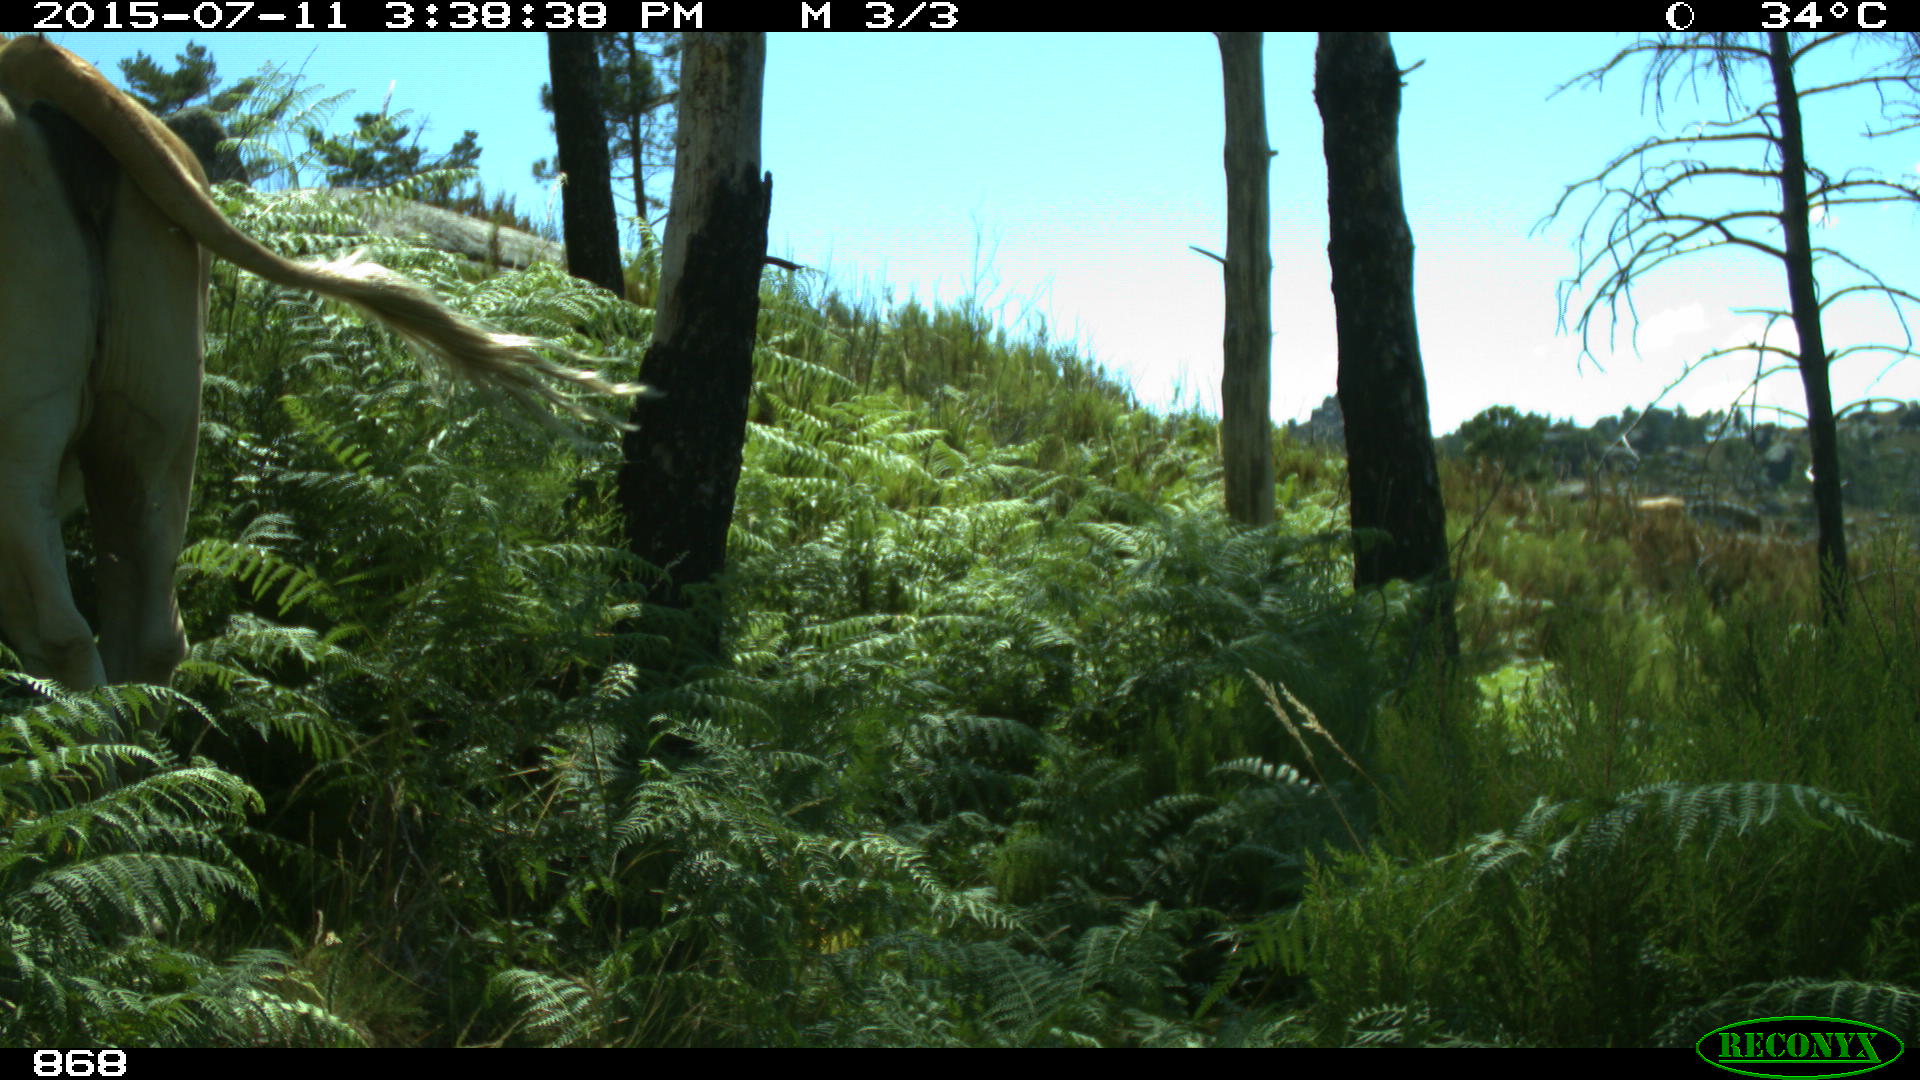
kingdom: Animalia
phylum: Chordata
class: Mammalia
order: Artiodactyla
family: Bovidae
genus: Bos
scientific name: Bos taurus
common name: Domesticated cattle
